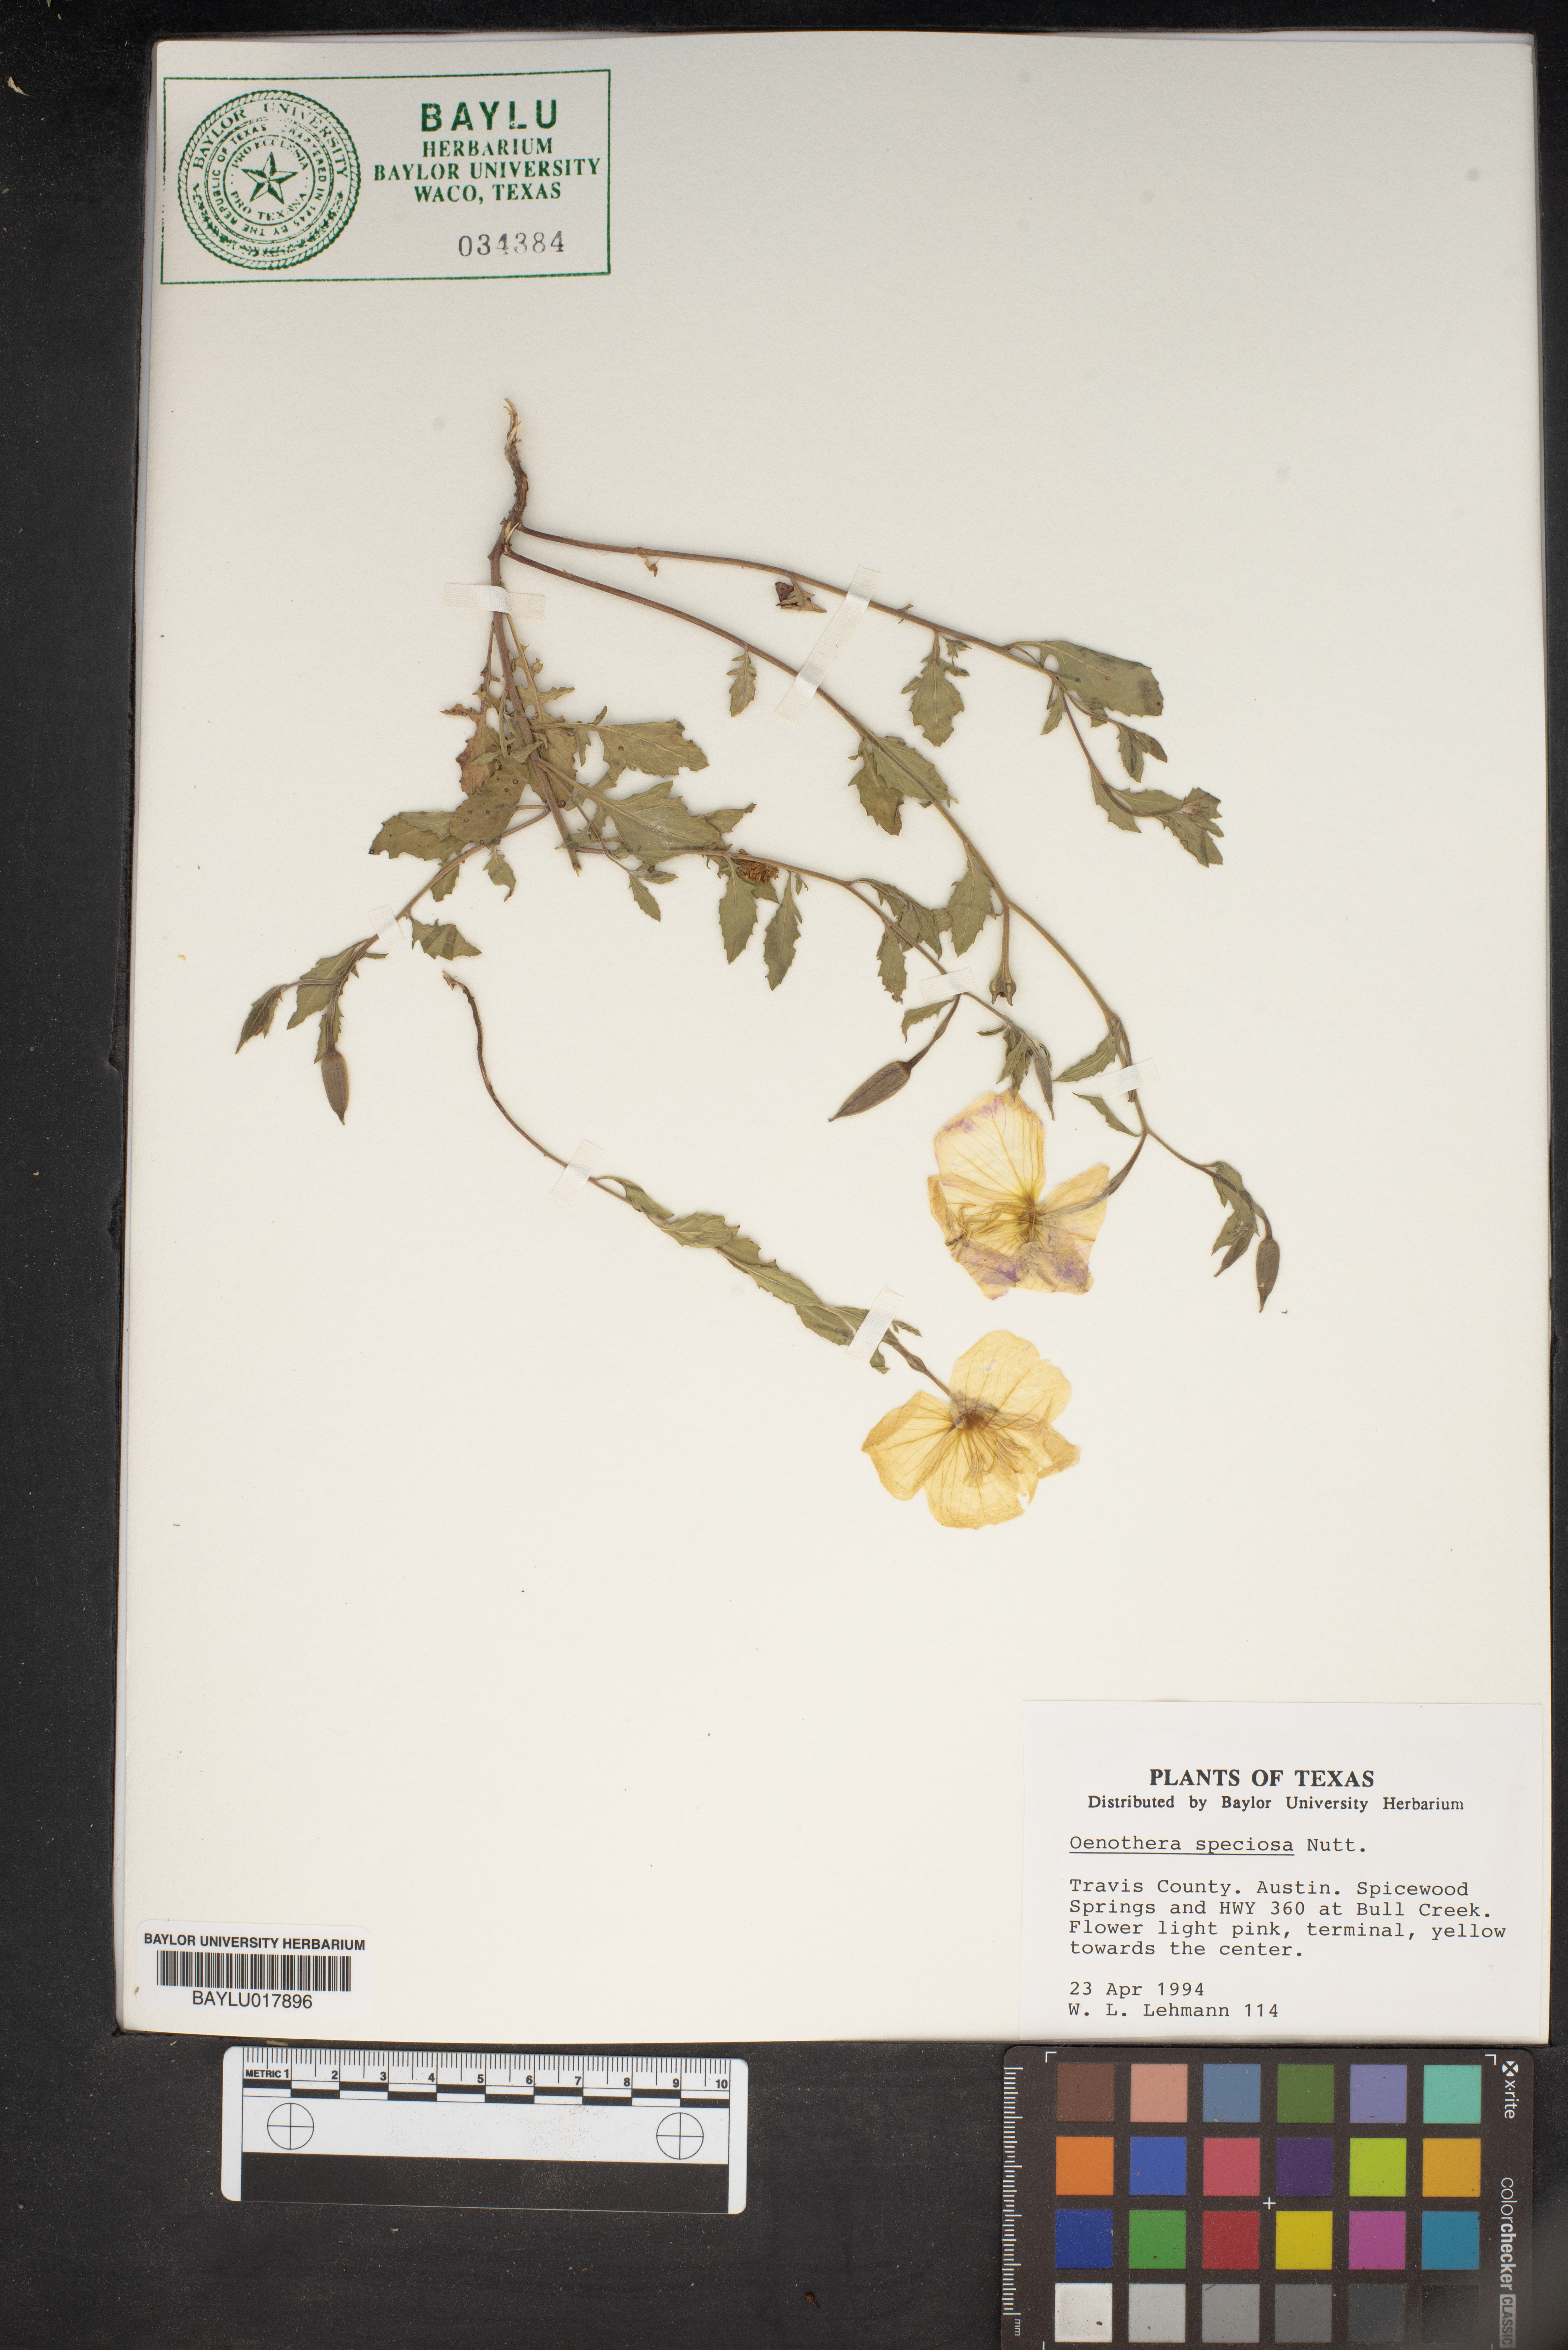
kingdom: Plantae
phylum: Tracheophyta
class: Magnoliopsida
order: Myrtales
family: Onagraceae
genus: Oenothera
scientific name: Oenothera speciosa
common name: White evening-primrose
